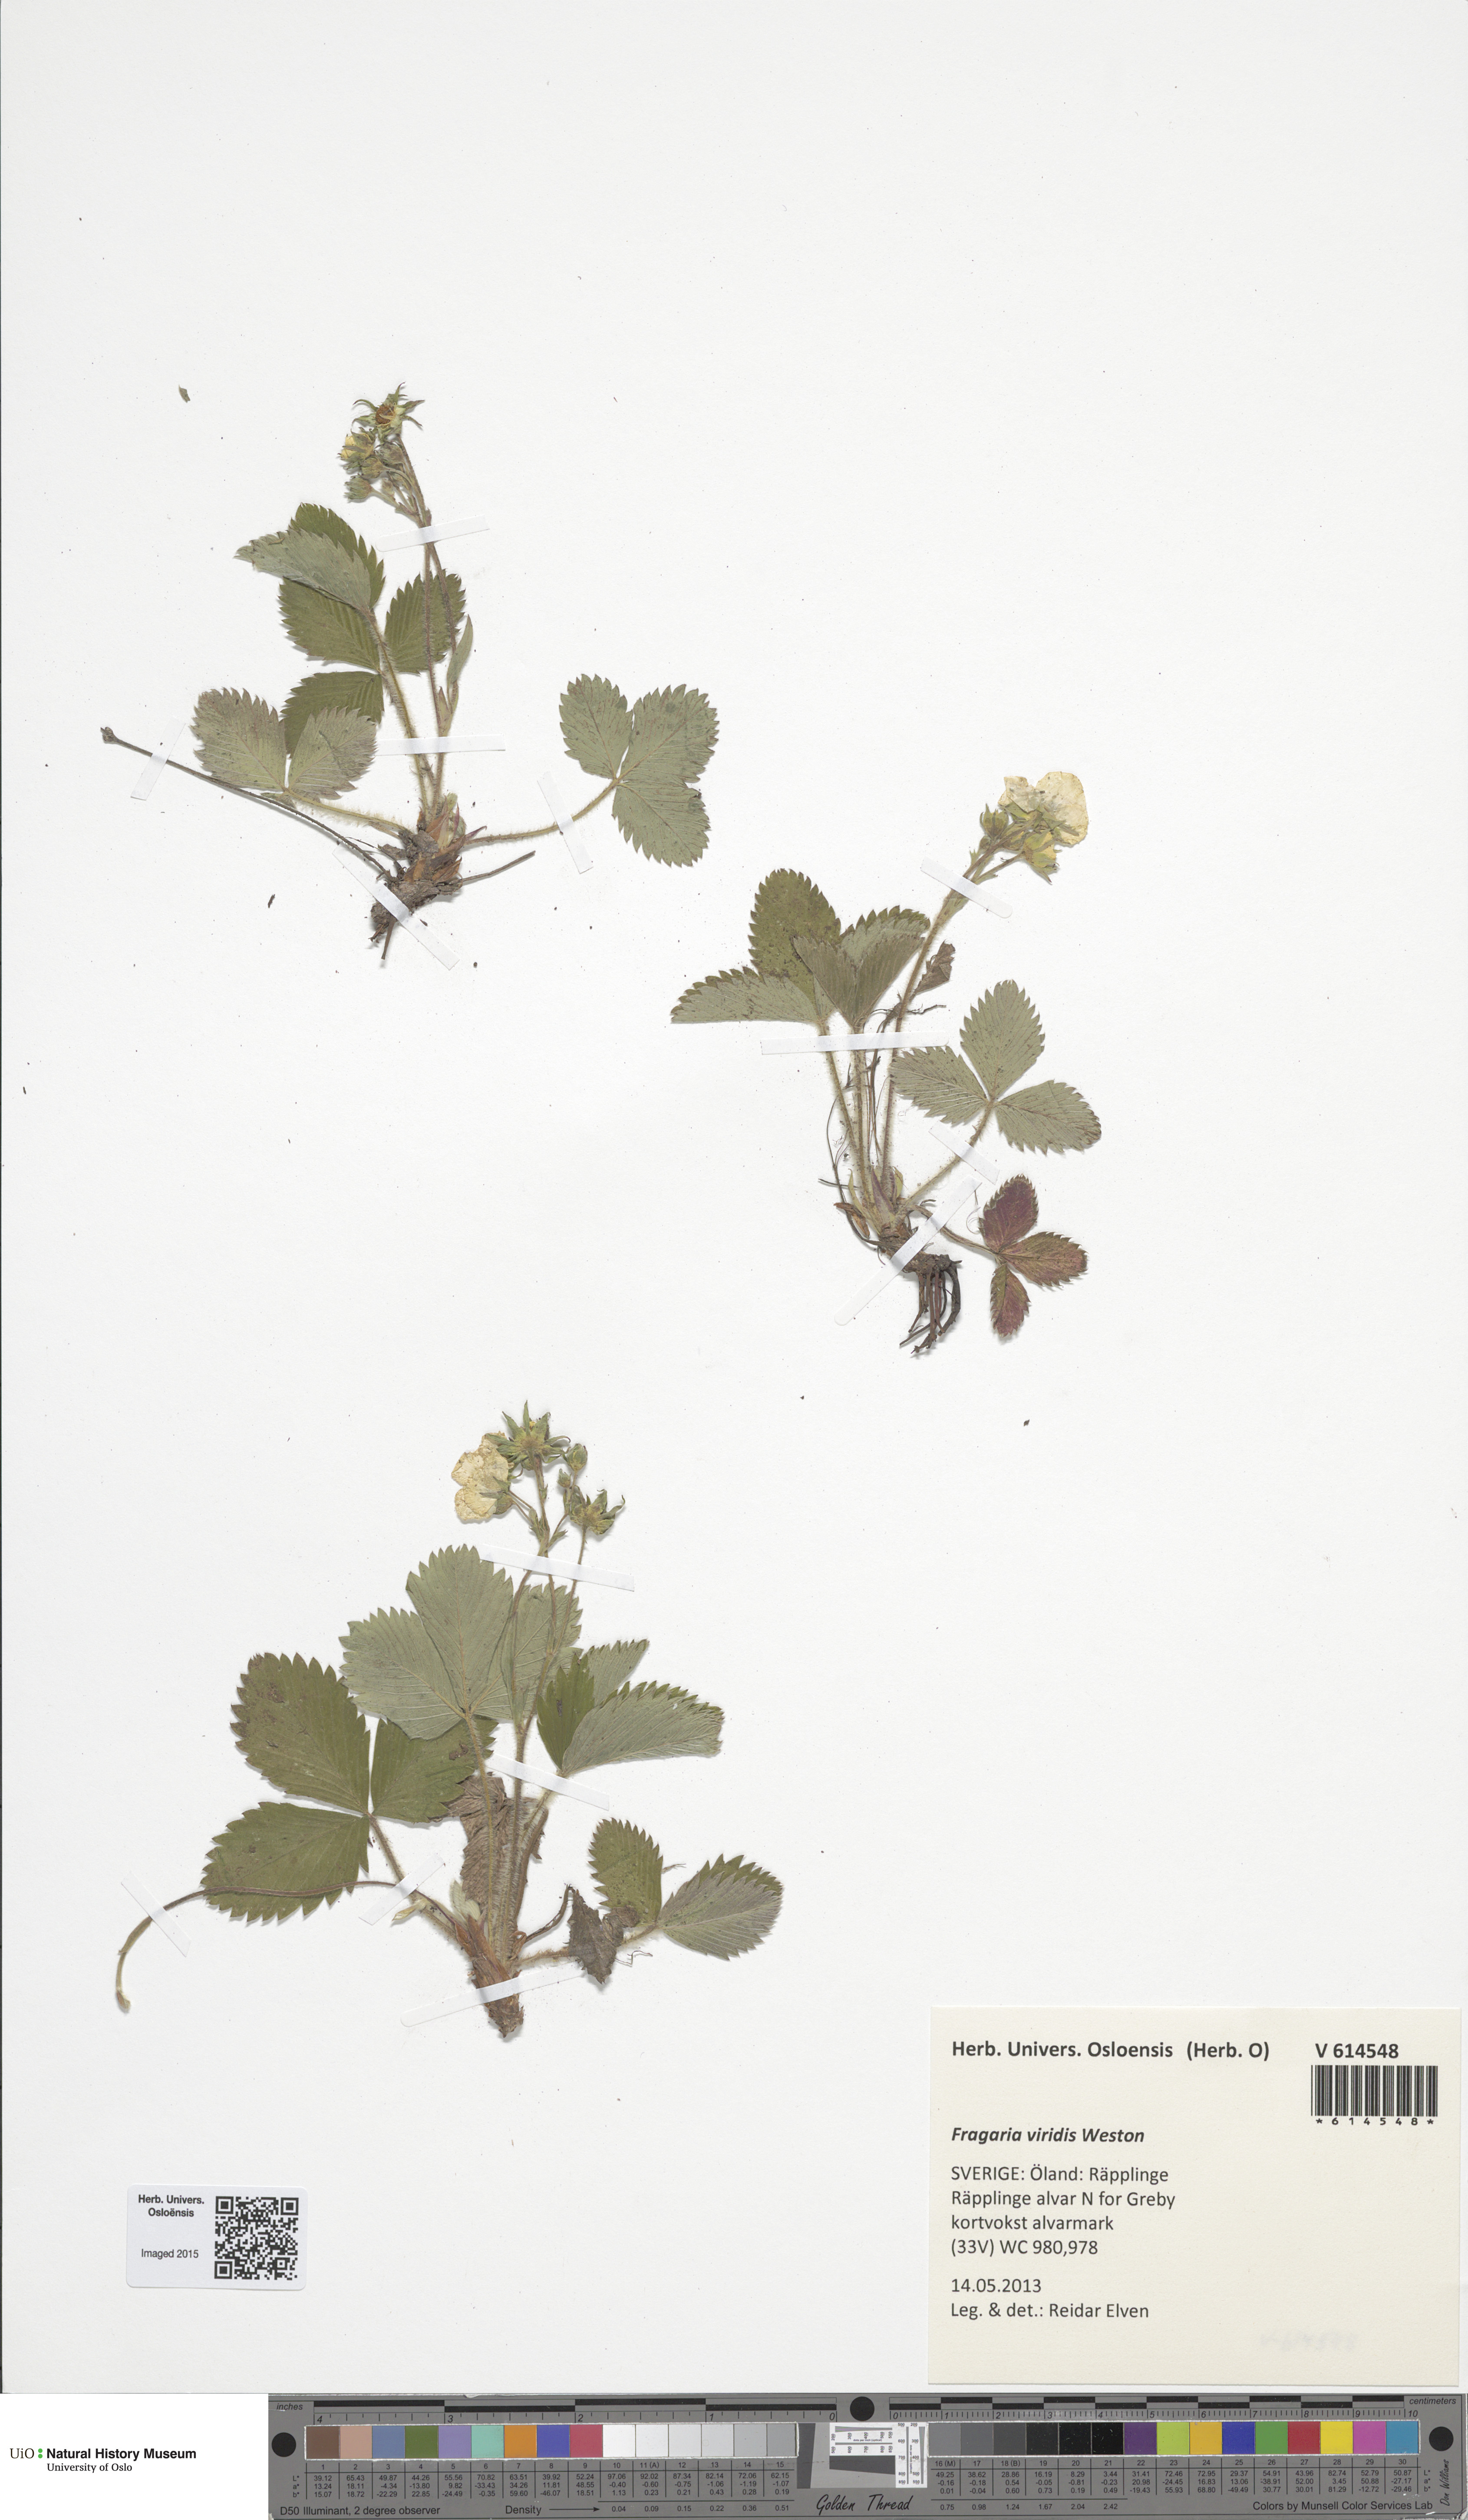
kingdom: Plantae
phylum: Tracheophyta
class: Magnoliopsida
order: Rosales
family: Rosaceae
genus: Fragaria
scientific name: Fragaria viridis
